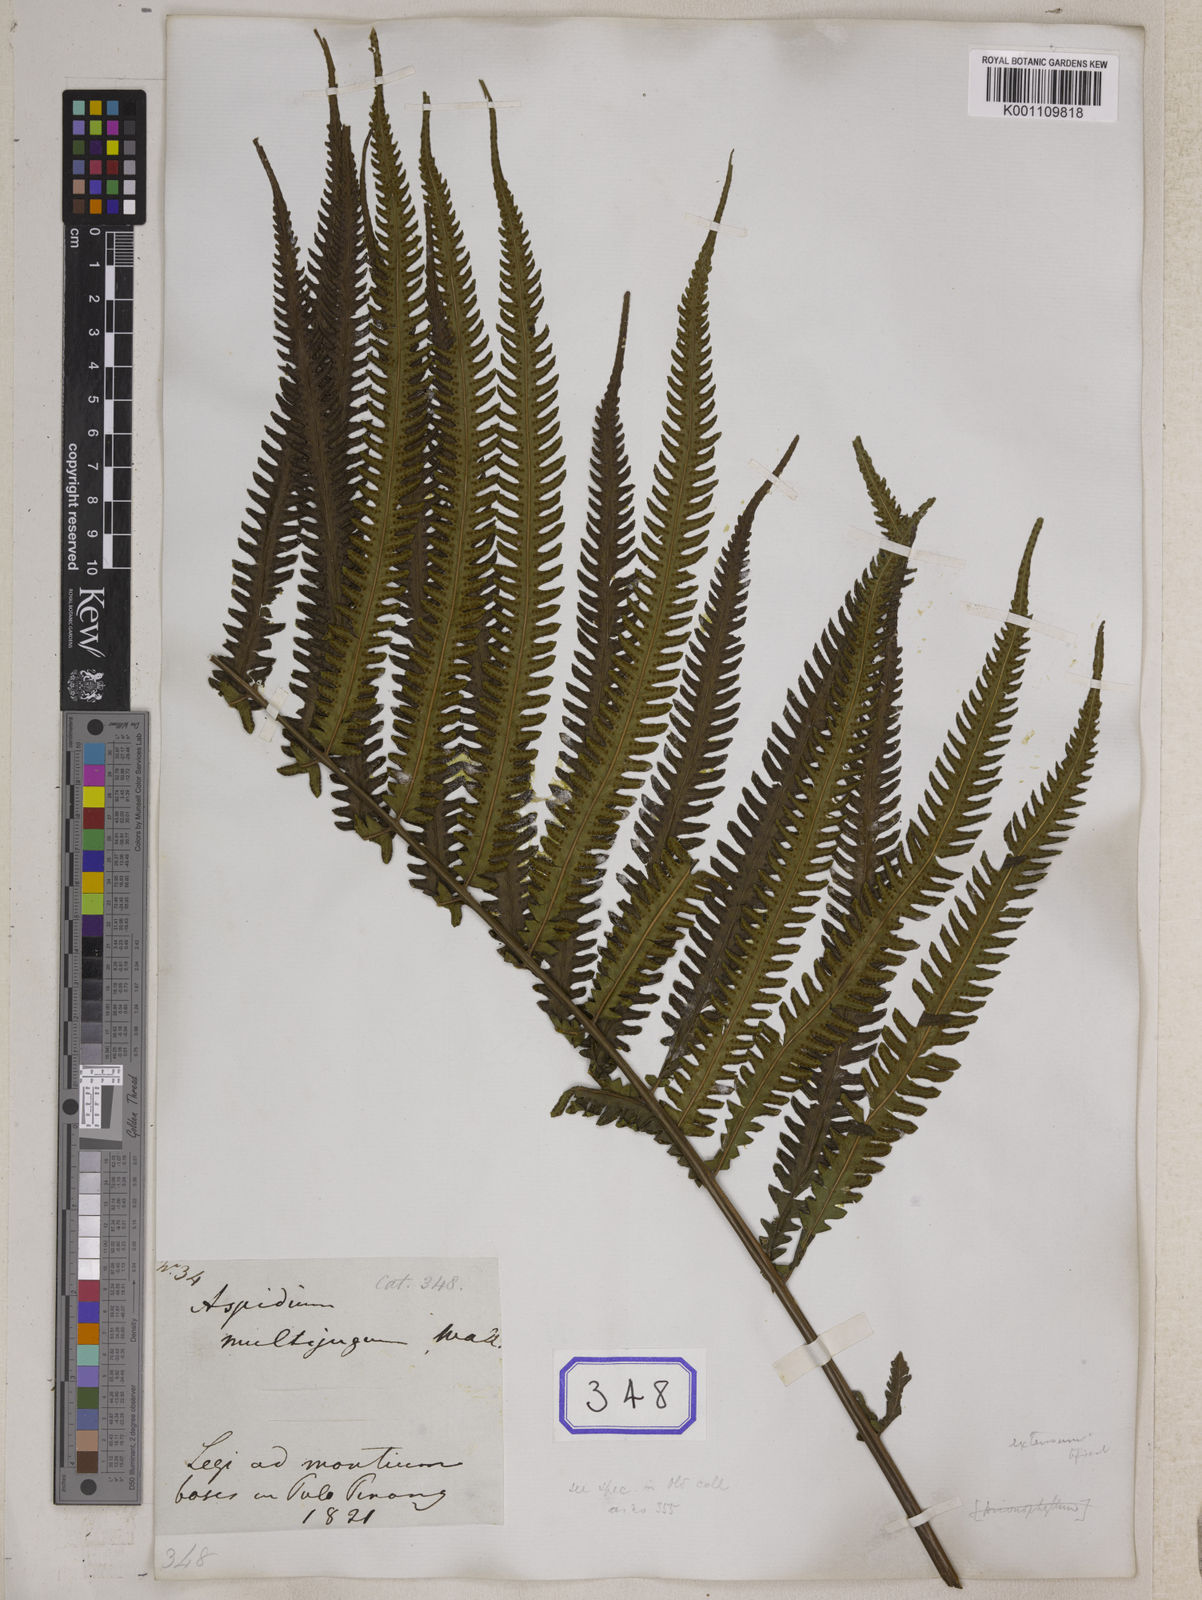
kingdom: Plantae
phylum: Tracheophyta
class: Polypodiopsida
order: Polypodiales
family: Thelypteridaceae
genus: Amblovenatum
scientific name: Amblovenatum opulentum
